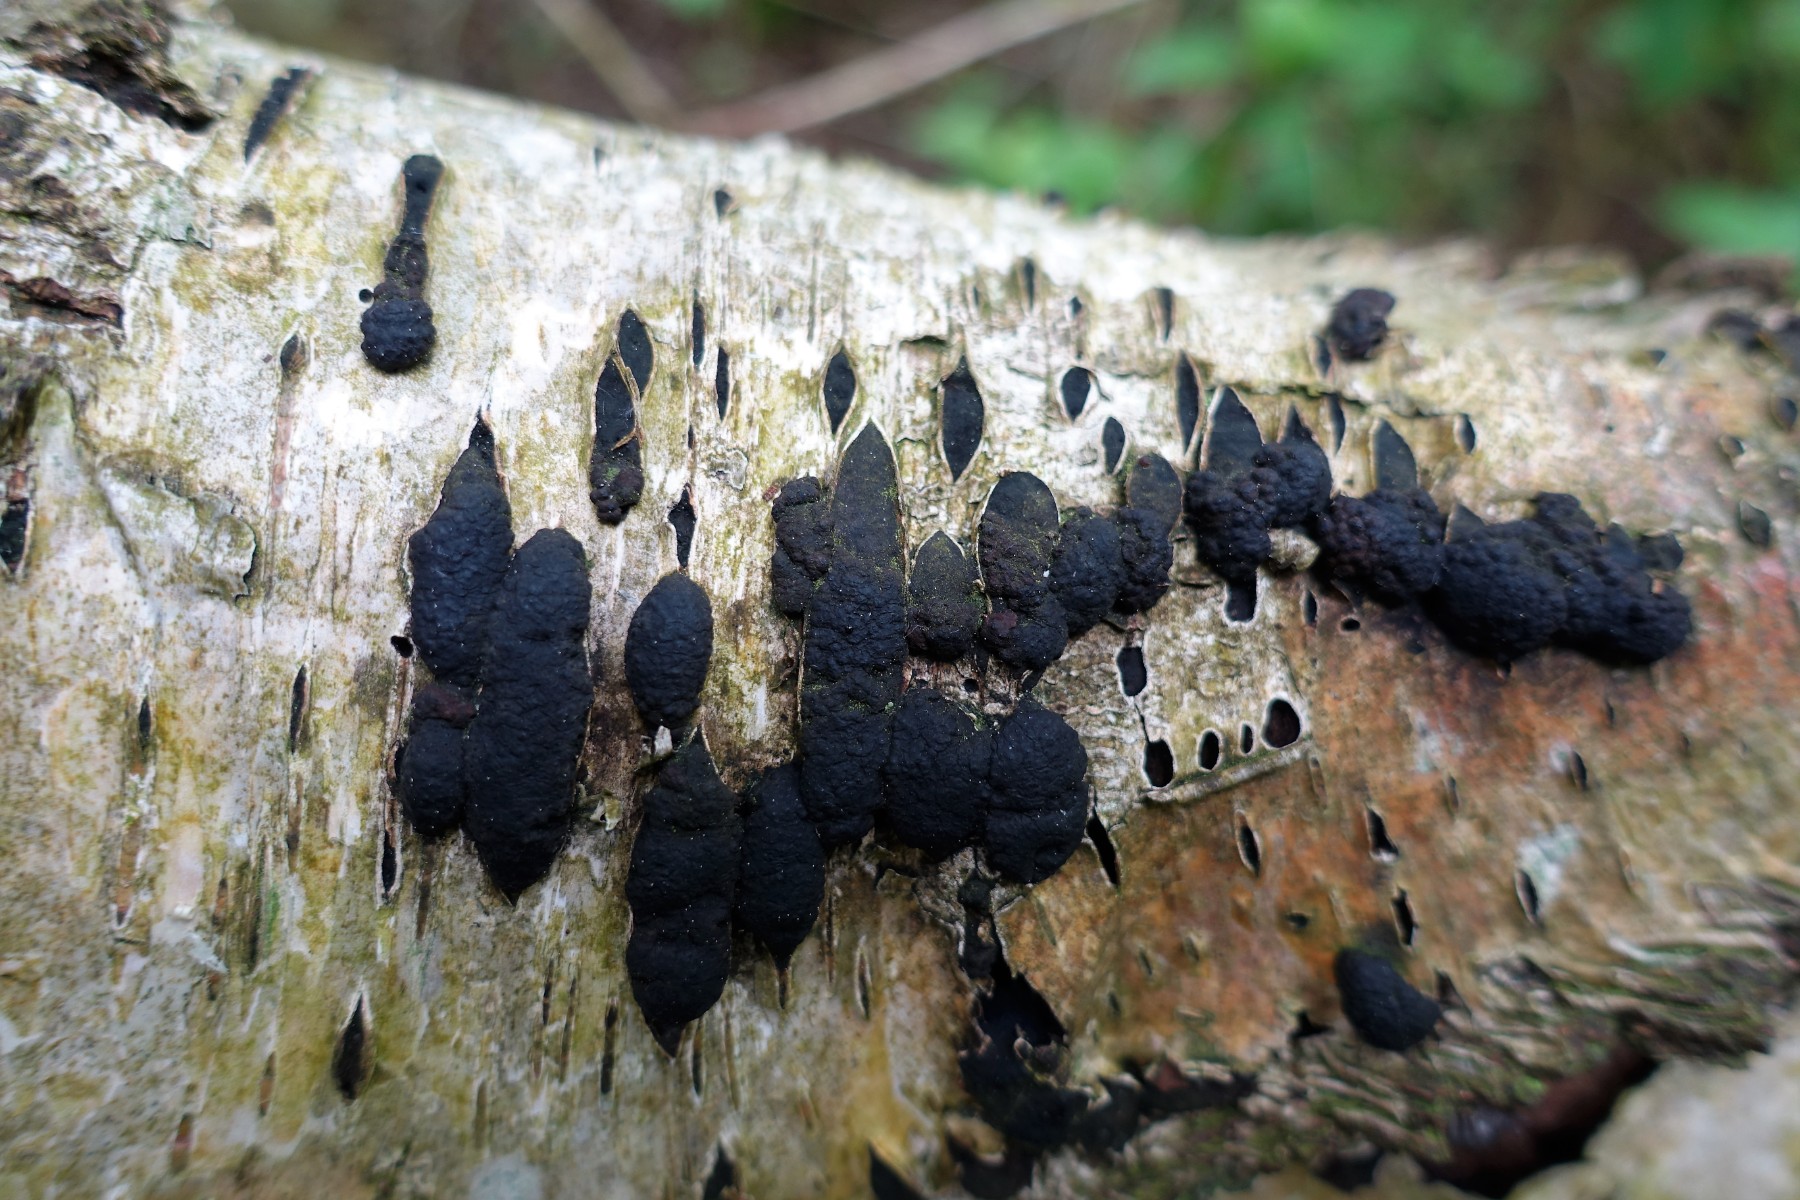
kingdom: Fungi
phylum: Ascomycota
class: Sordariomycetes
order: Xylariales
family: Hypoxylaceae
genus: Jackrogersella
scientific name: Jackrogersella multiformis
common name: foranderlig kulbær
